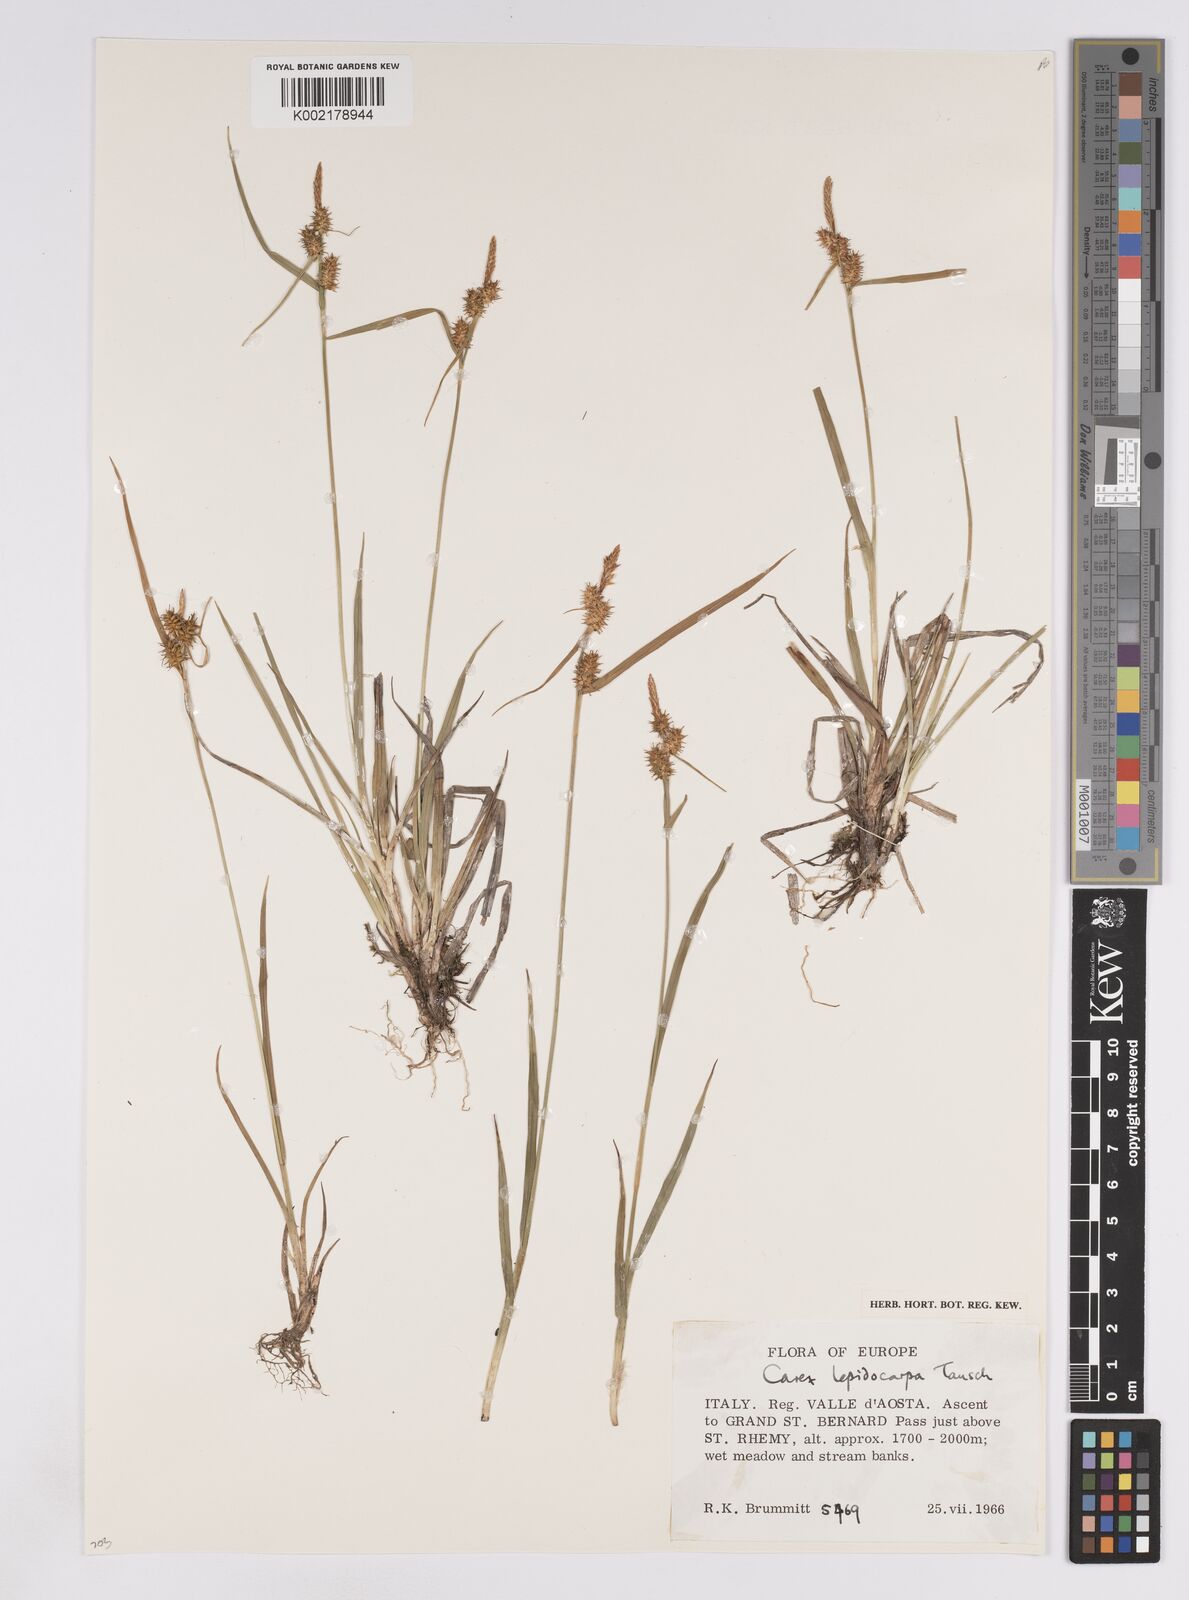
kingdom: Plantae
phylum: Tracheophyta
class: Liliopsida
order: Poales
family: Cyperaceae
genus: Carex
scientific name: Carex lepidocarpa
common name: Long-stalked yellow-sedge
